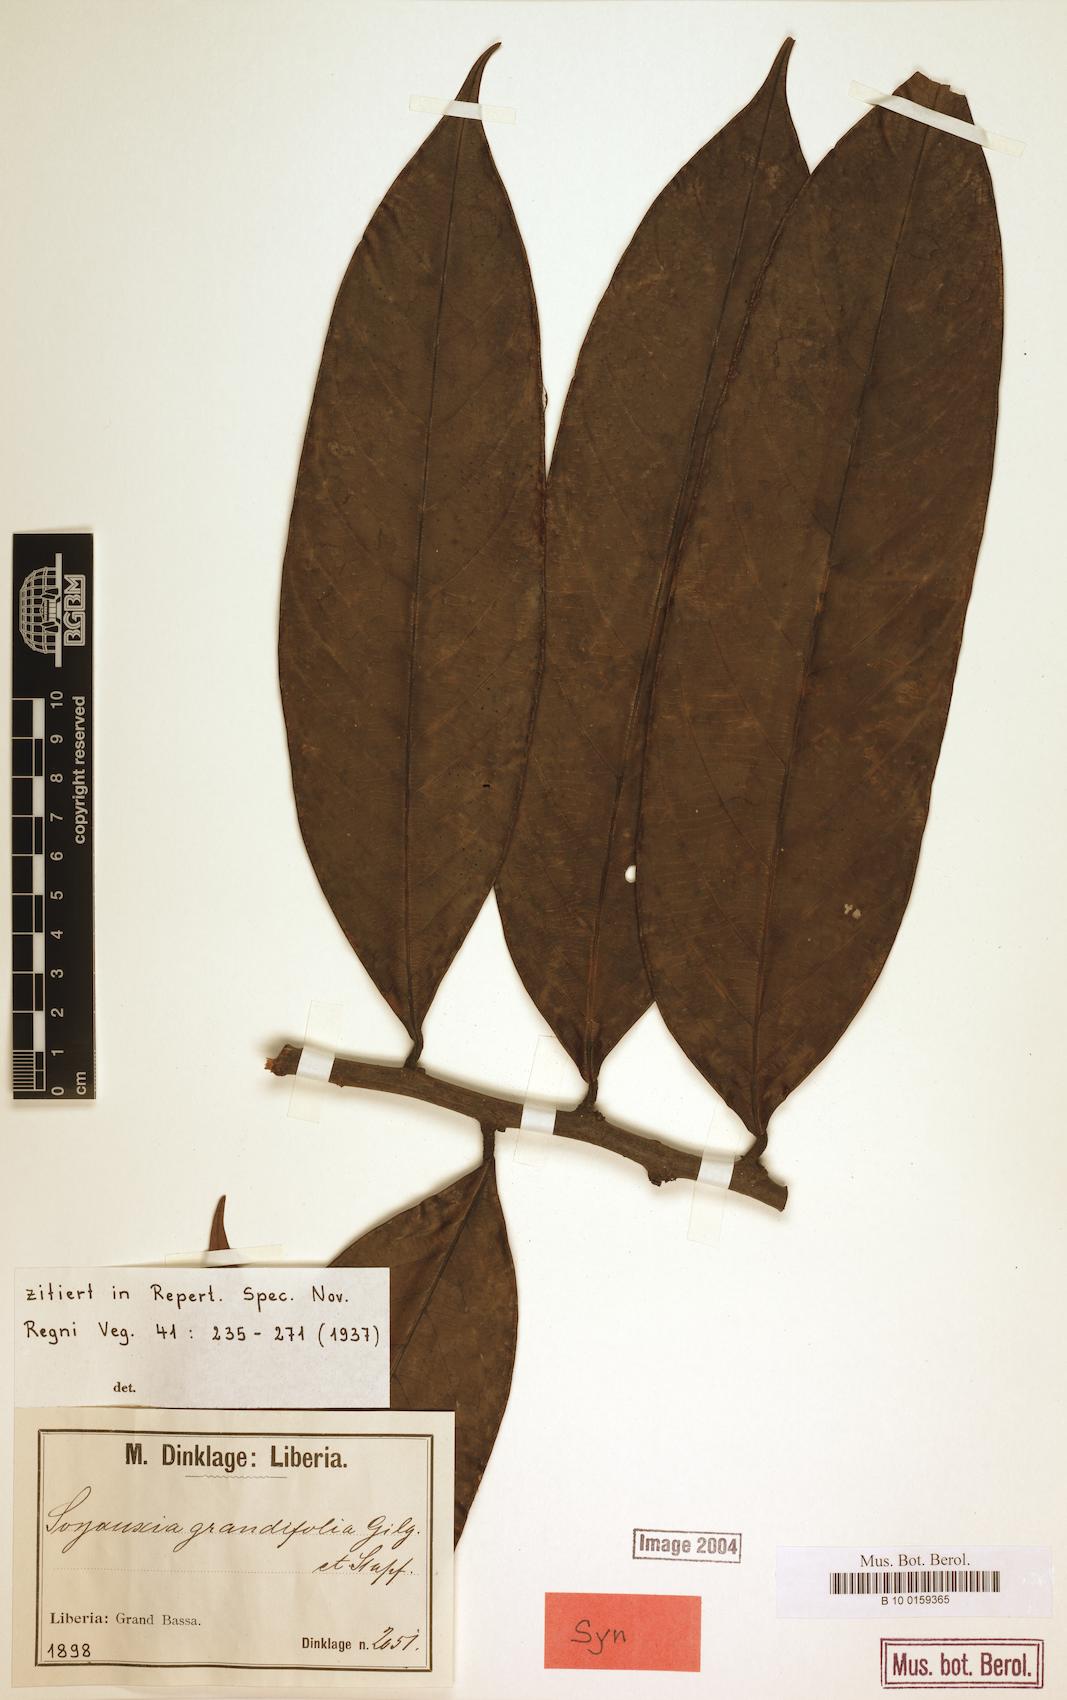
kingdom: Plantae
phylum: Tracheophyta
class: Magnoliopsida
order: Saxifragales
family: Peridiscaceae
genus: Soyauxia
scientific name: Soyauxia grandifolia
